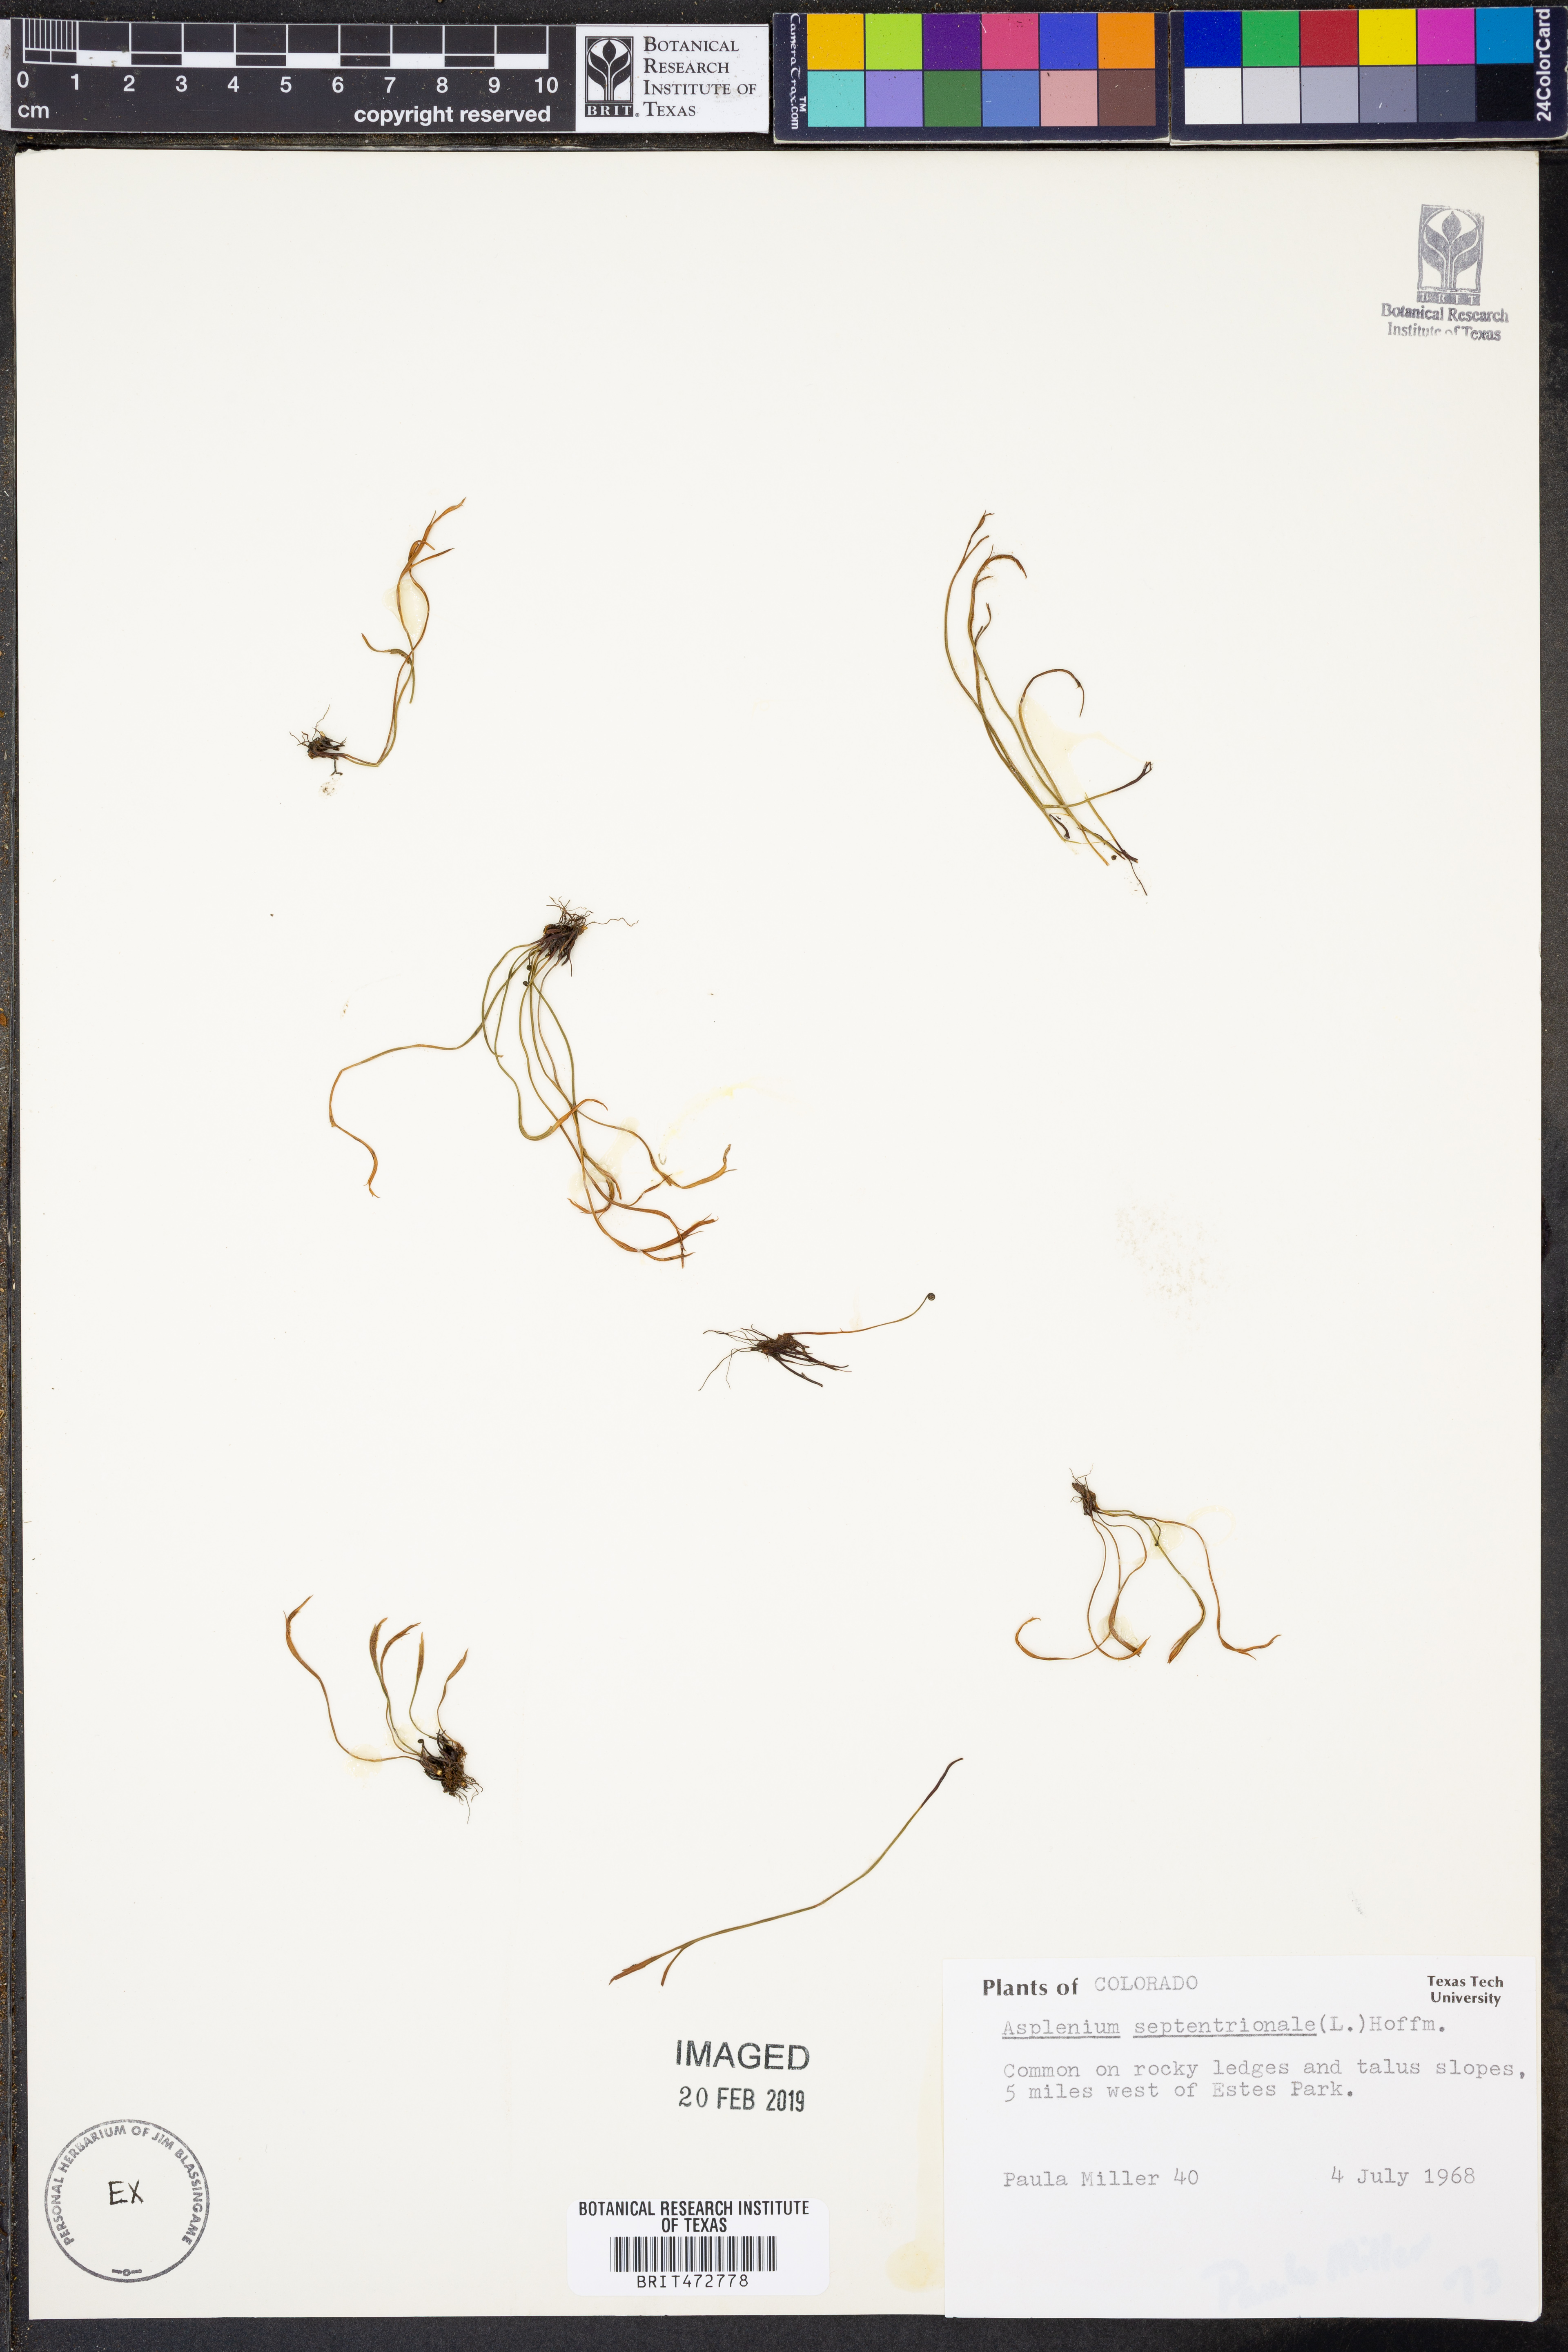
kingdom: Plantae
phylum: Tracheophyta
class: Polypodiopsida
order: Polypodiales
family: Aspleniaceae
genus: Asplenium
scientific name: Asplenium septentrionale
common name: Forked spleenwort
